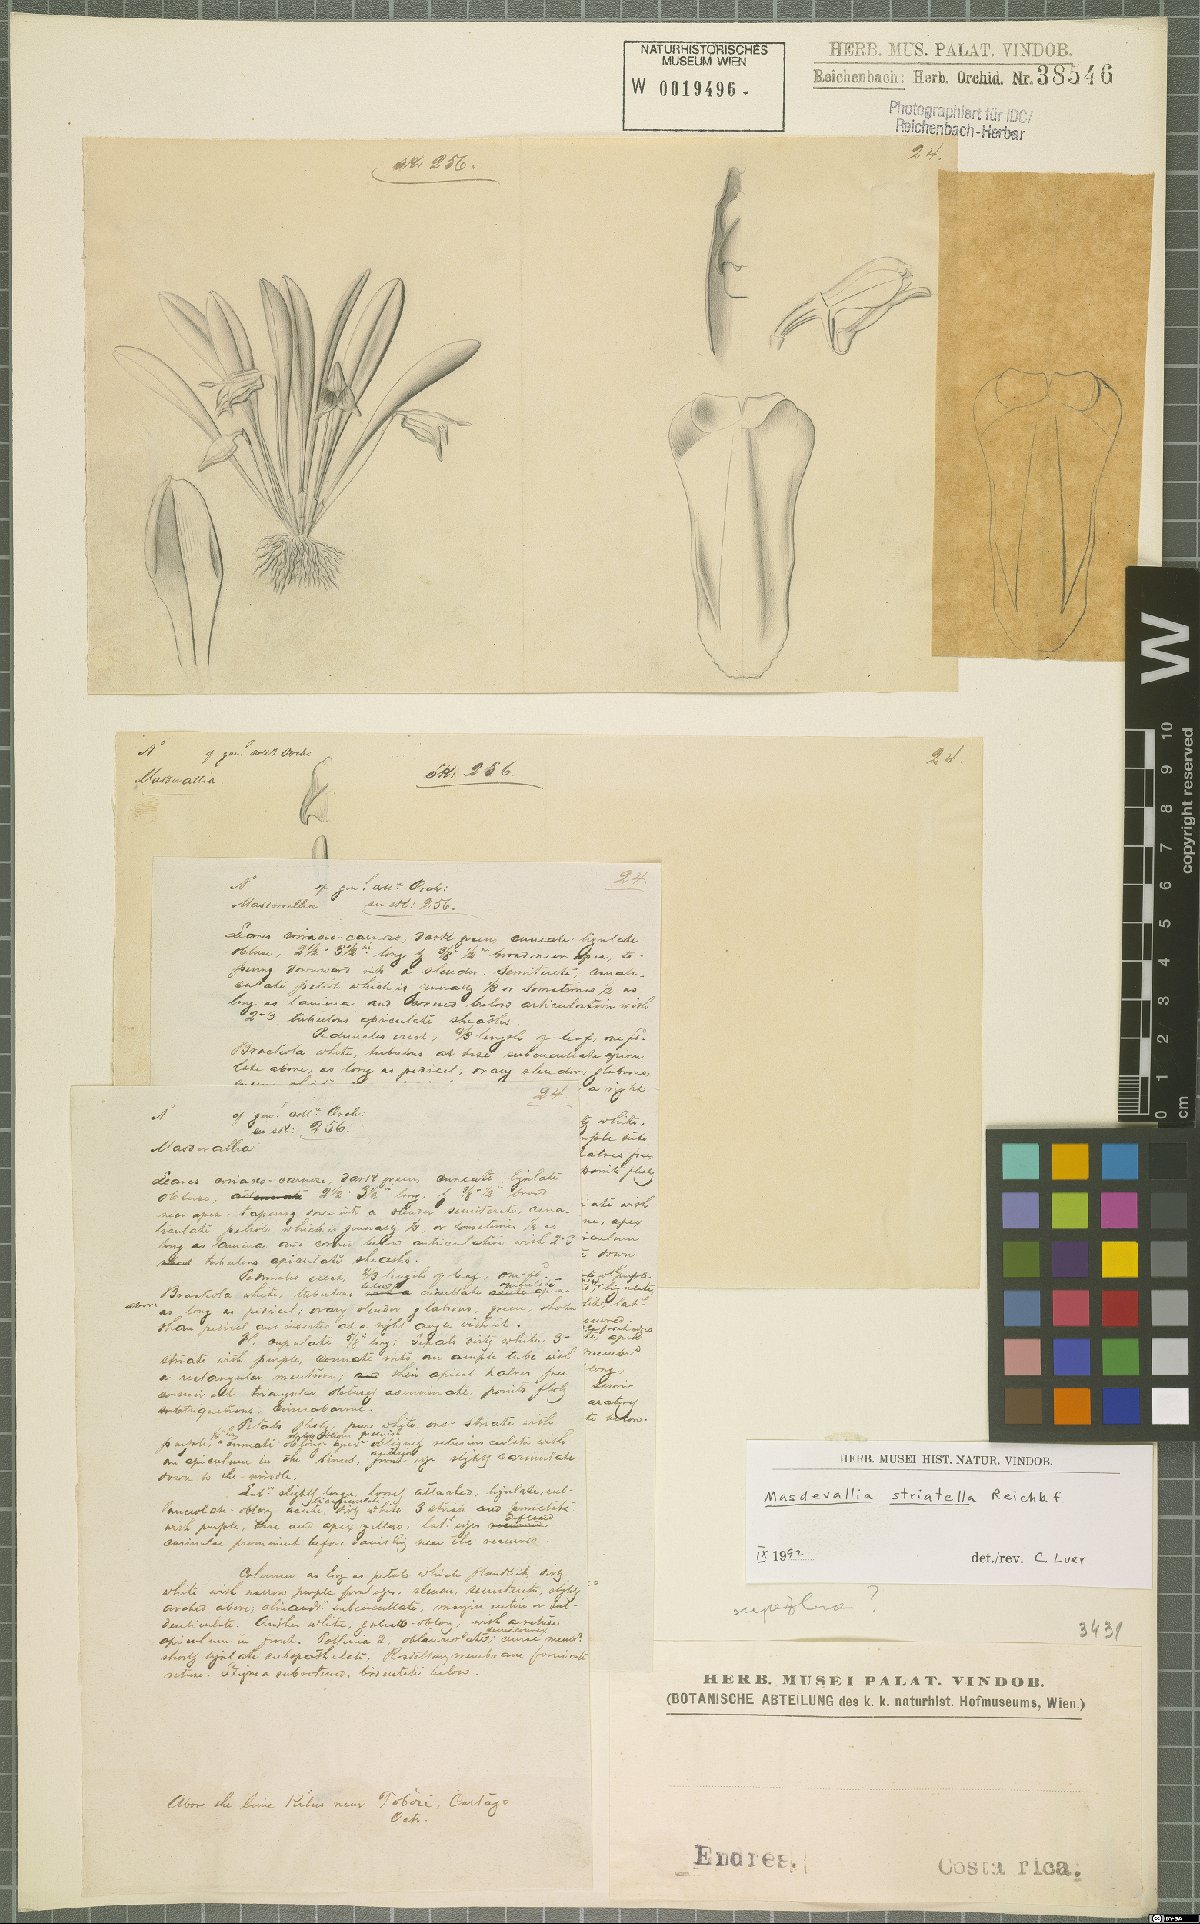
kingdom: Plantae
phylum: Tracheophyta
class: Liliopsida
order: Asparagales
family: Orchidaceae
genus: Masdevallia
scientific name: Masdevallia striatella
